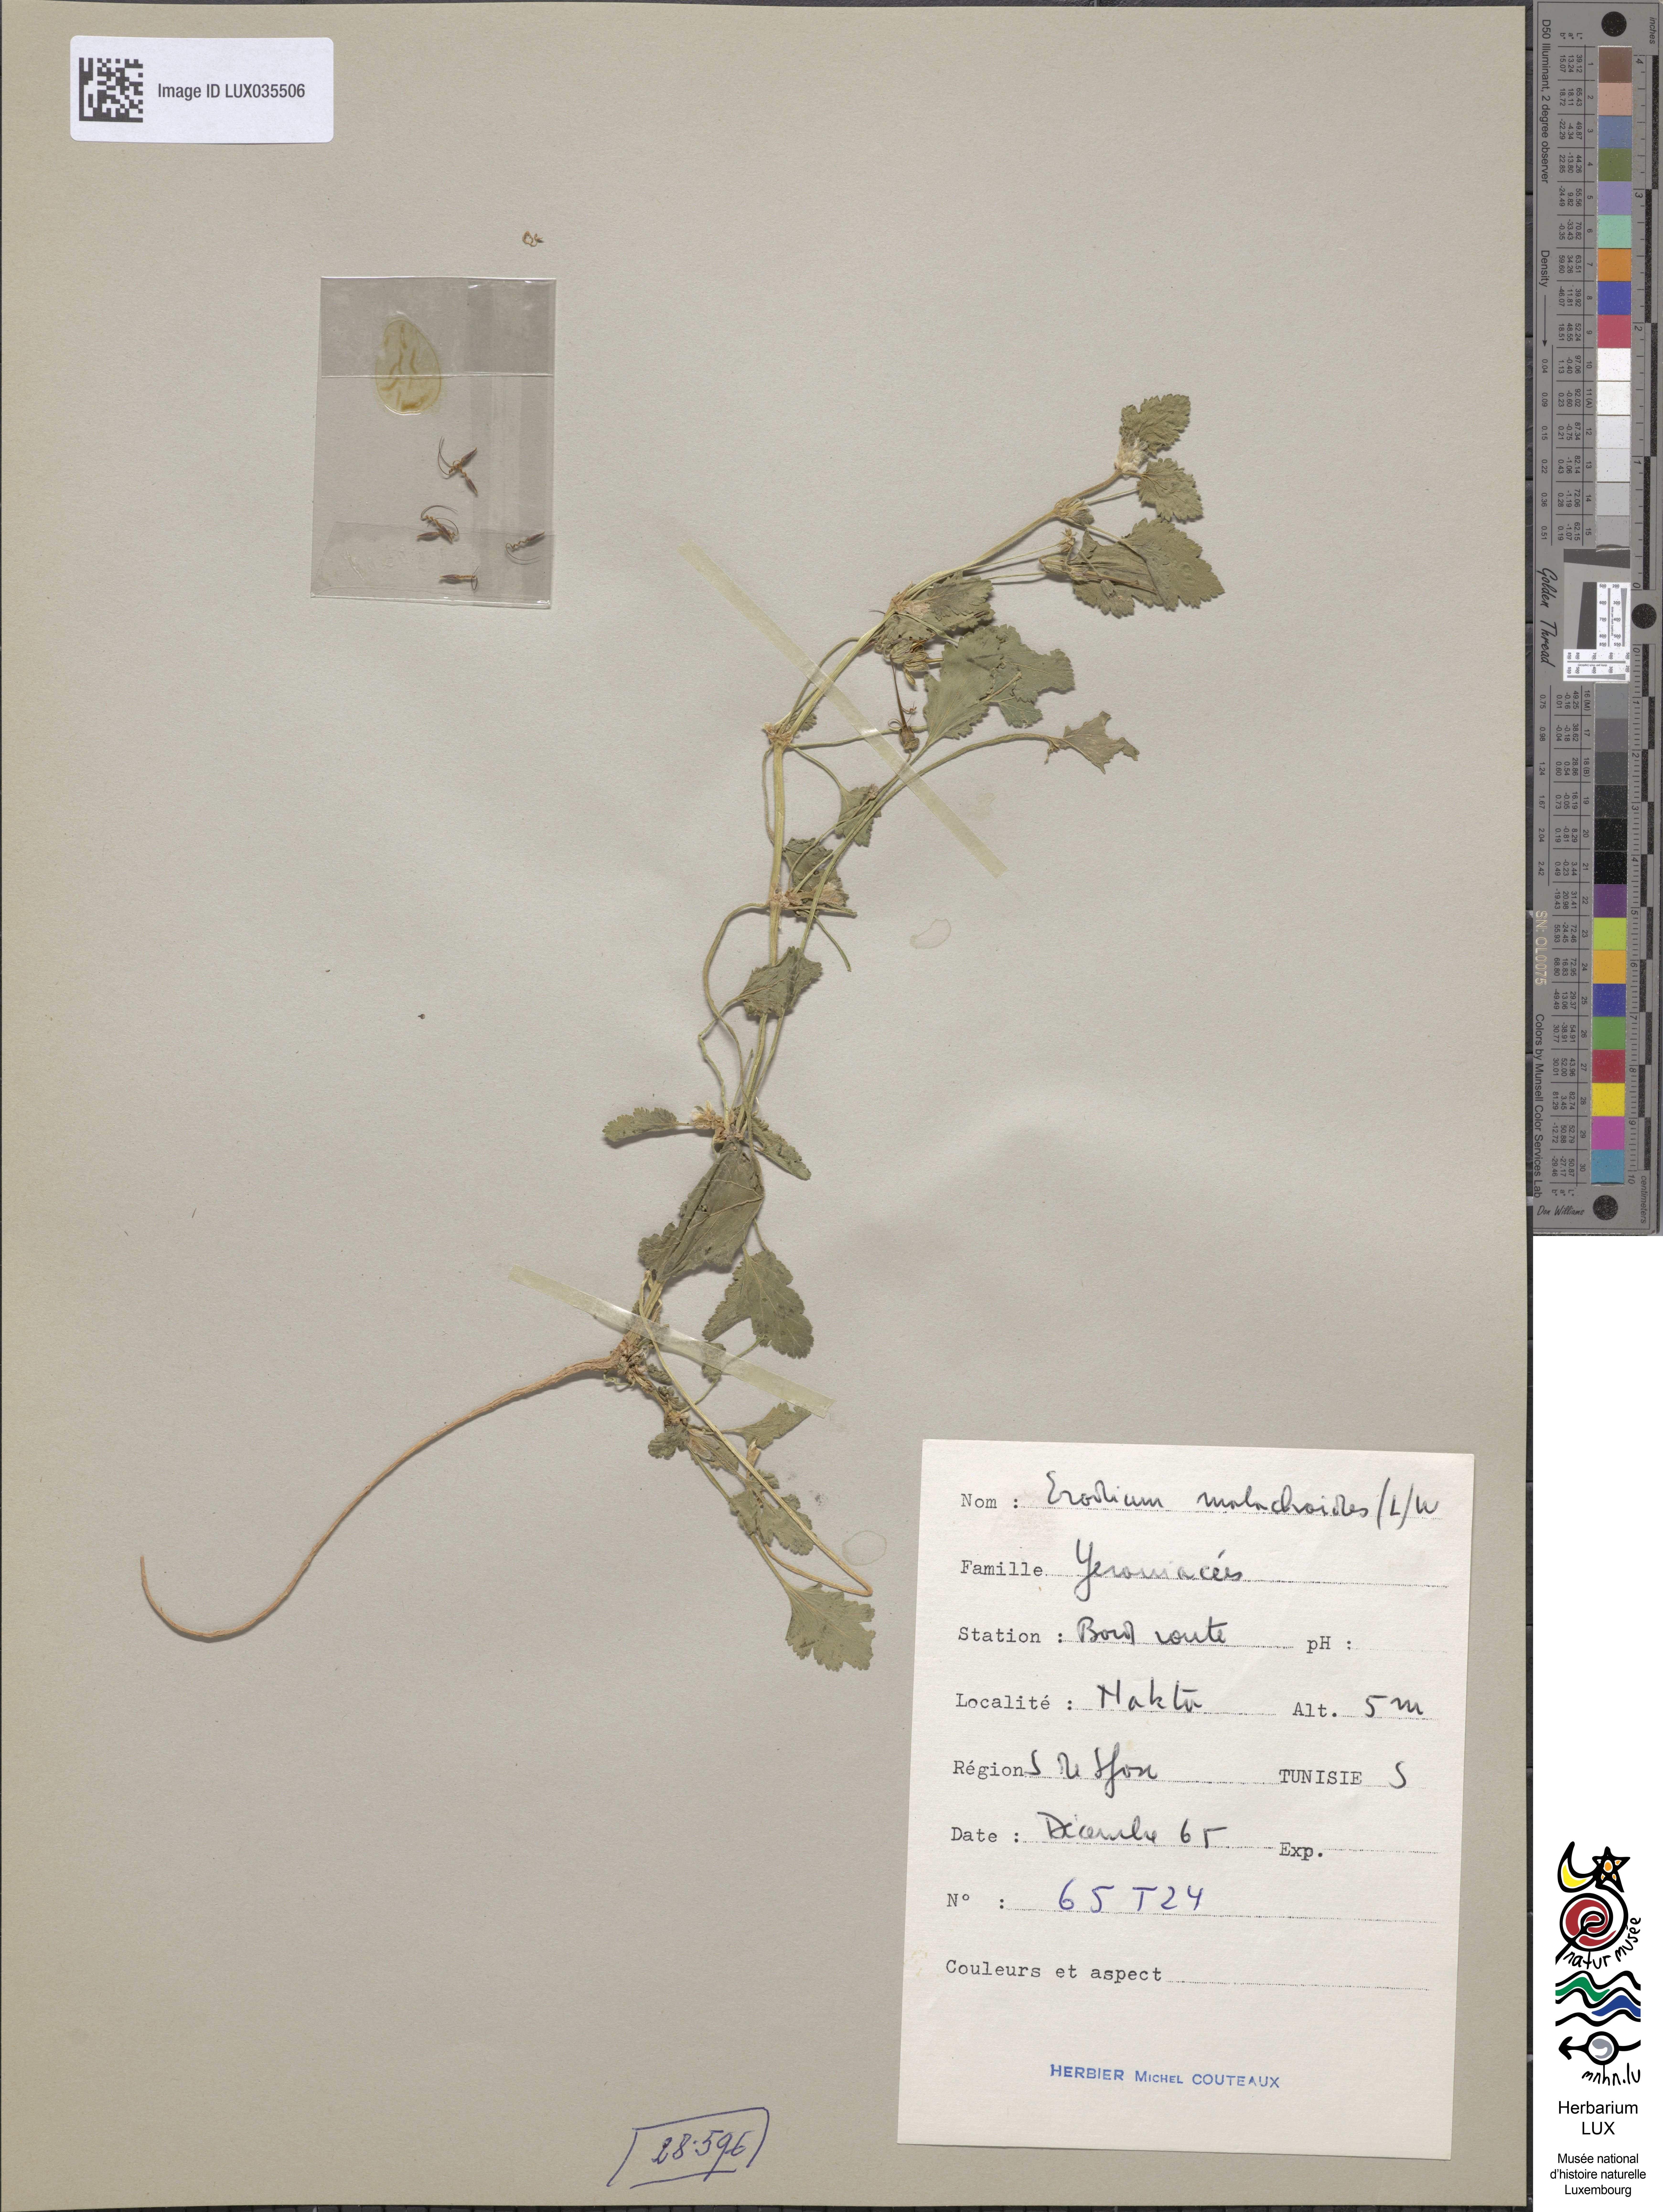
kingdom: Plantae
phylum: Tracheophyta
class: Magnoliopsida
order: Geraniales
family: Geraniaceae
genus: Erodium
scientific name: Erodium malacoides
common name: Soft stork's-bill
